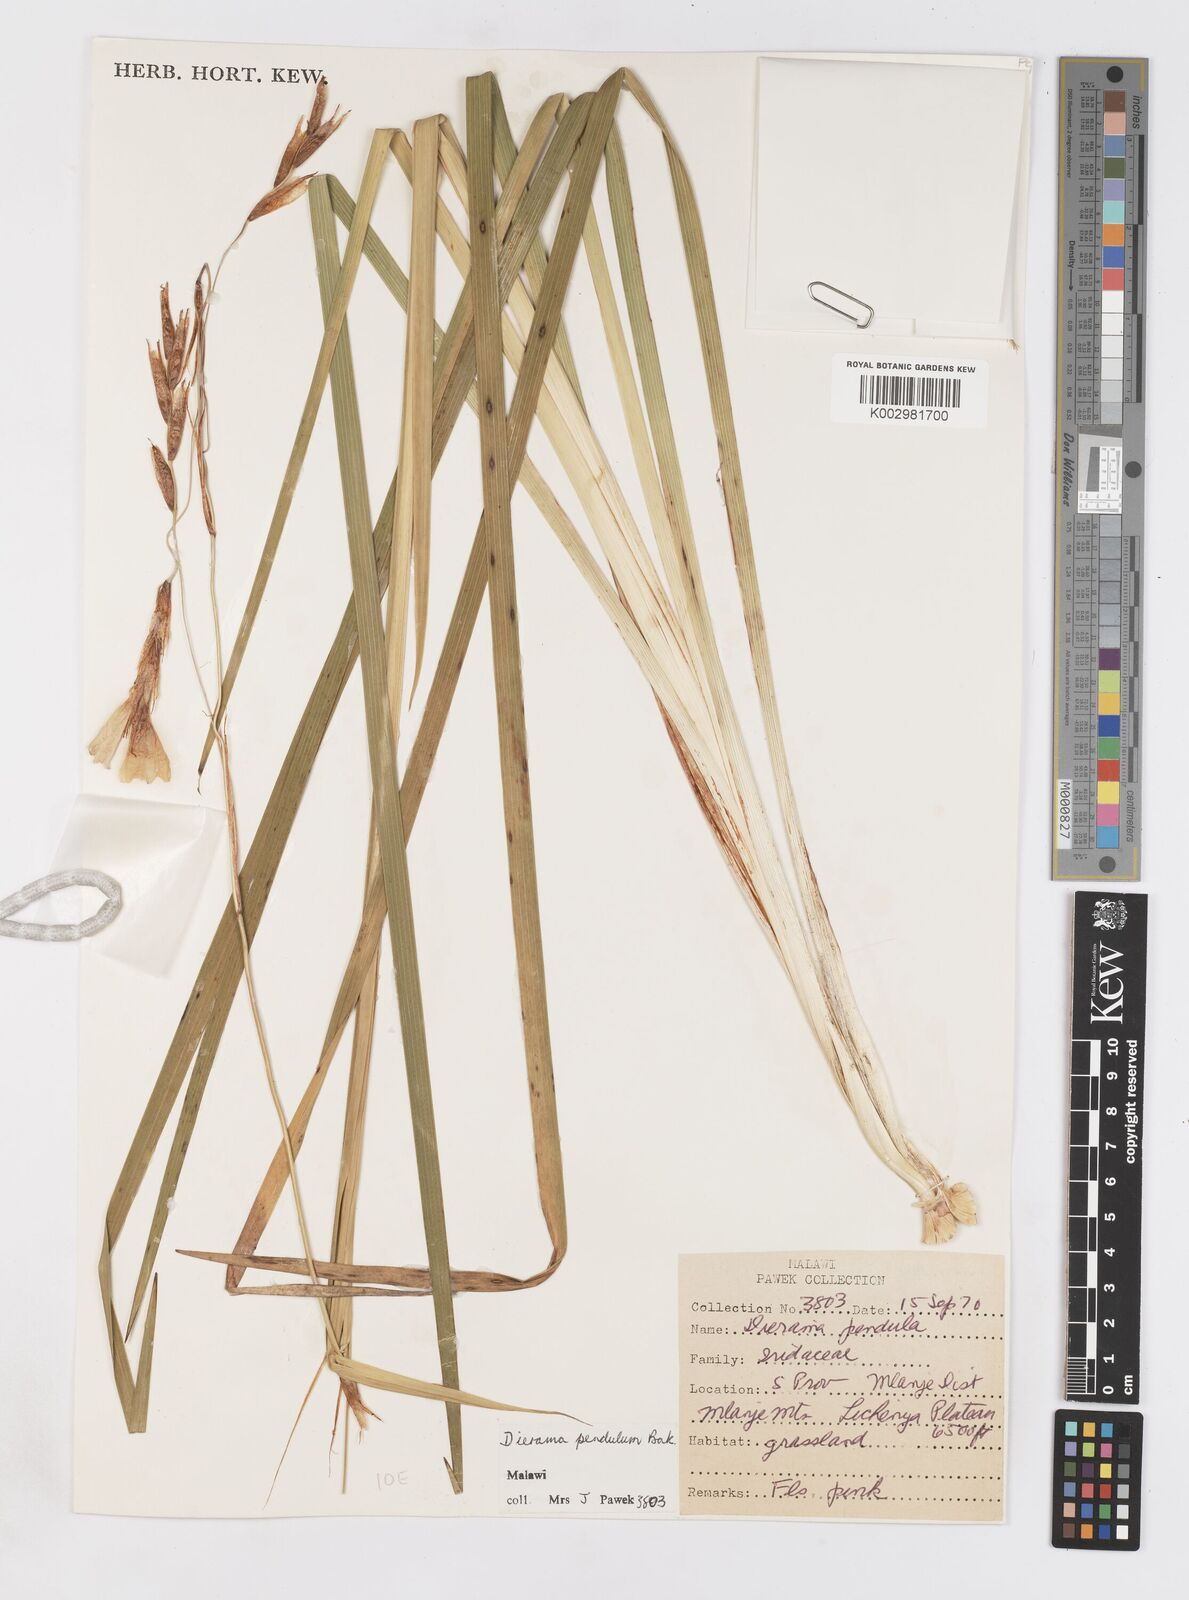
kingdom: Plantae
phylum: Tracheophyta
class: Liliopsida
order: Asparagales
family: Iridaceae
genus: Dierama
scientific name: Dierama cupuliflorum
